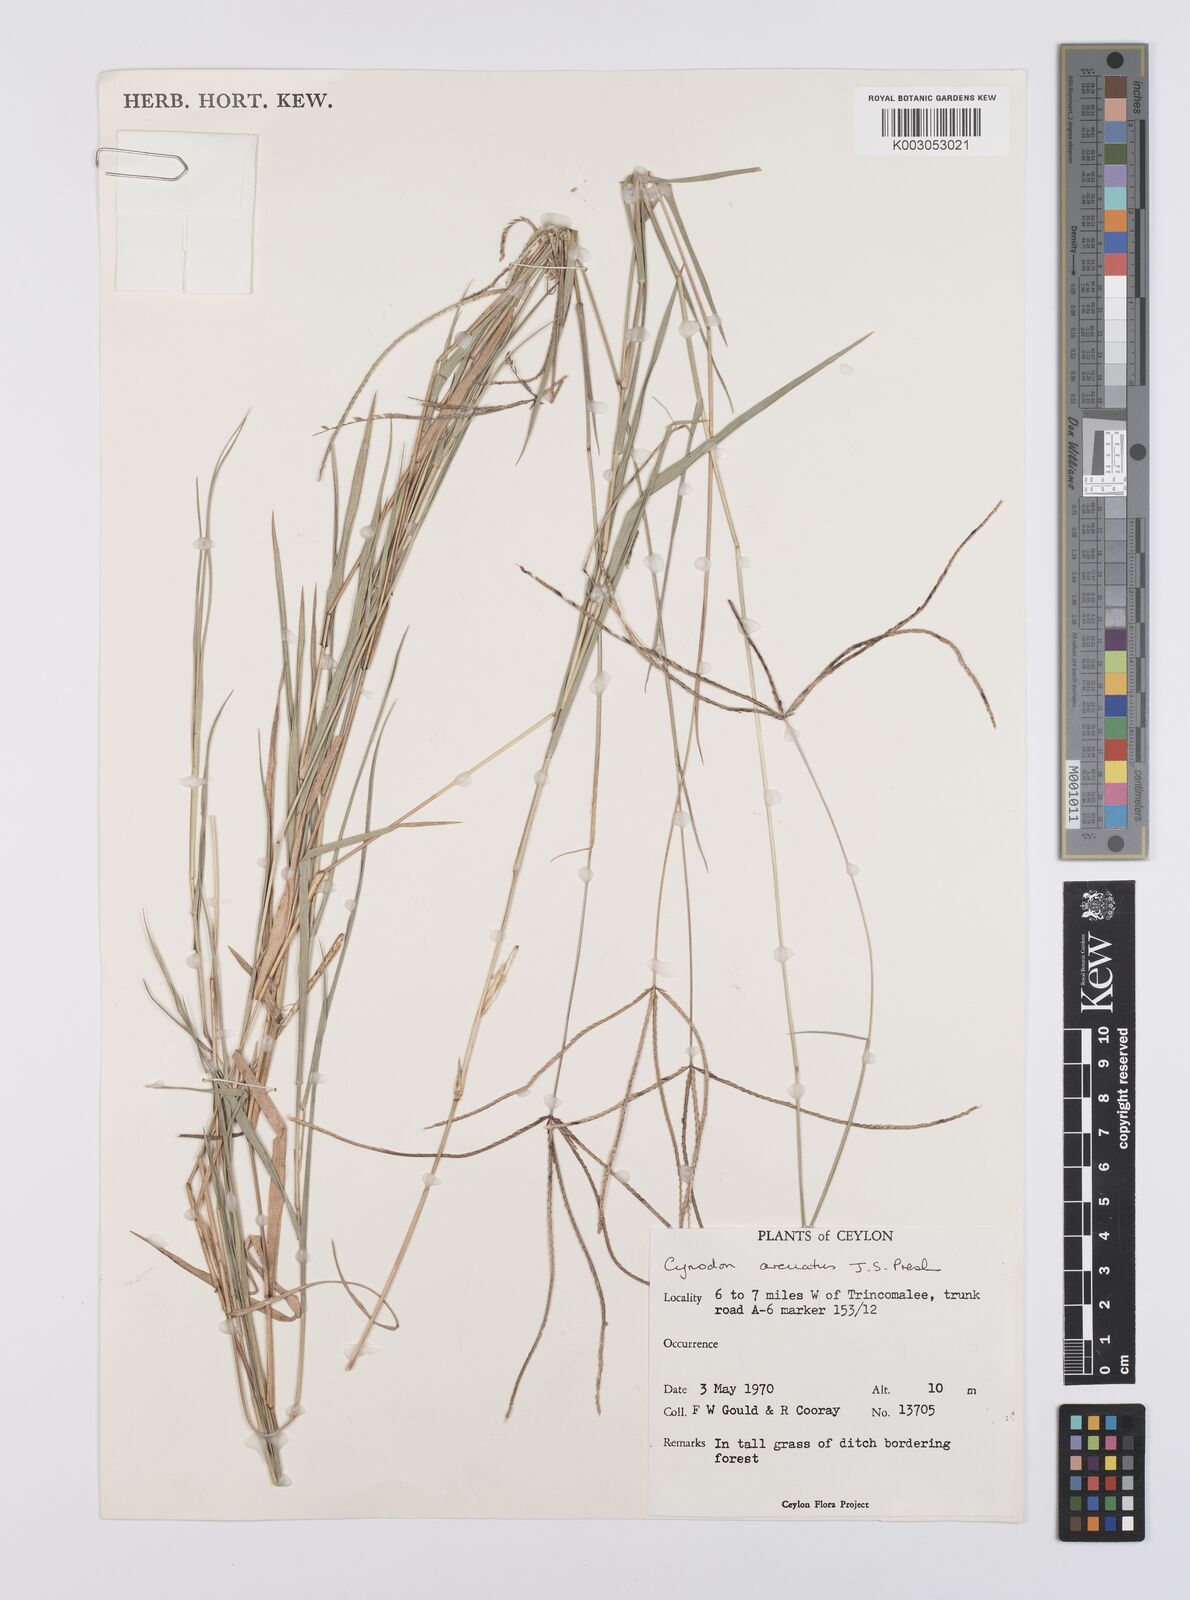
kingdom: Plantae
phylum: Tracheophyta
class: Liliopsida
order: Poales
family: Poaceae
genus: Cynodon
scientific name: Cynodon radiatus
